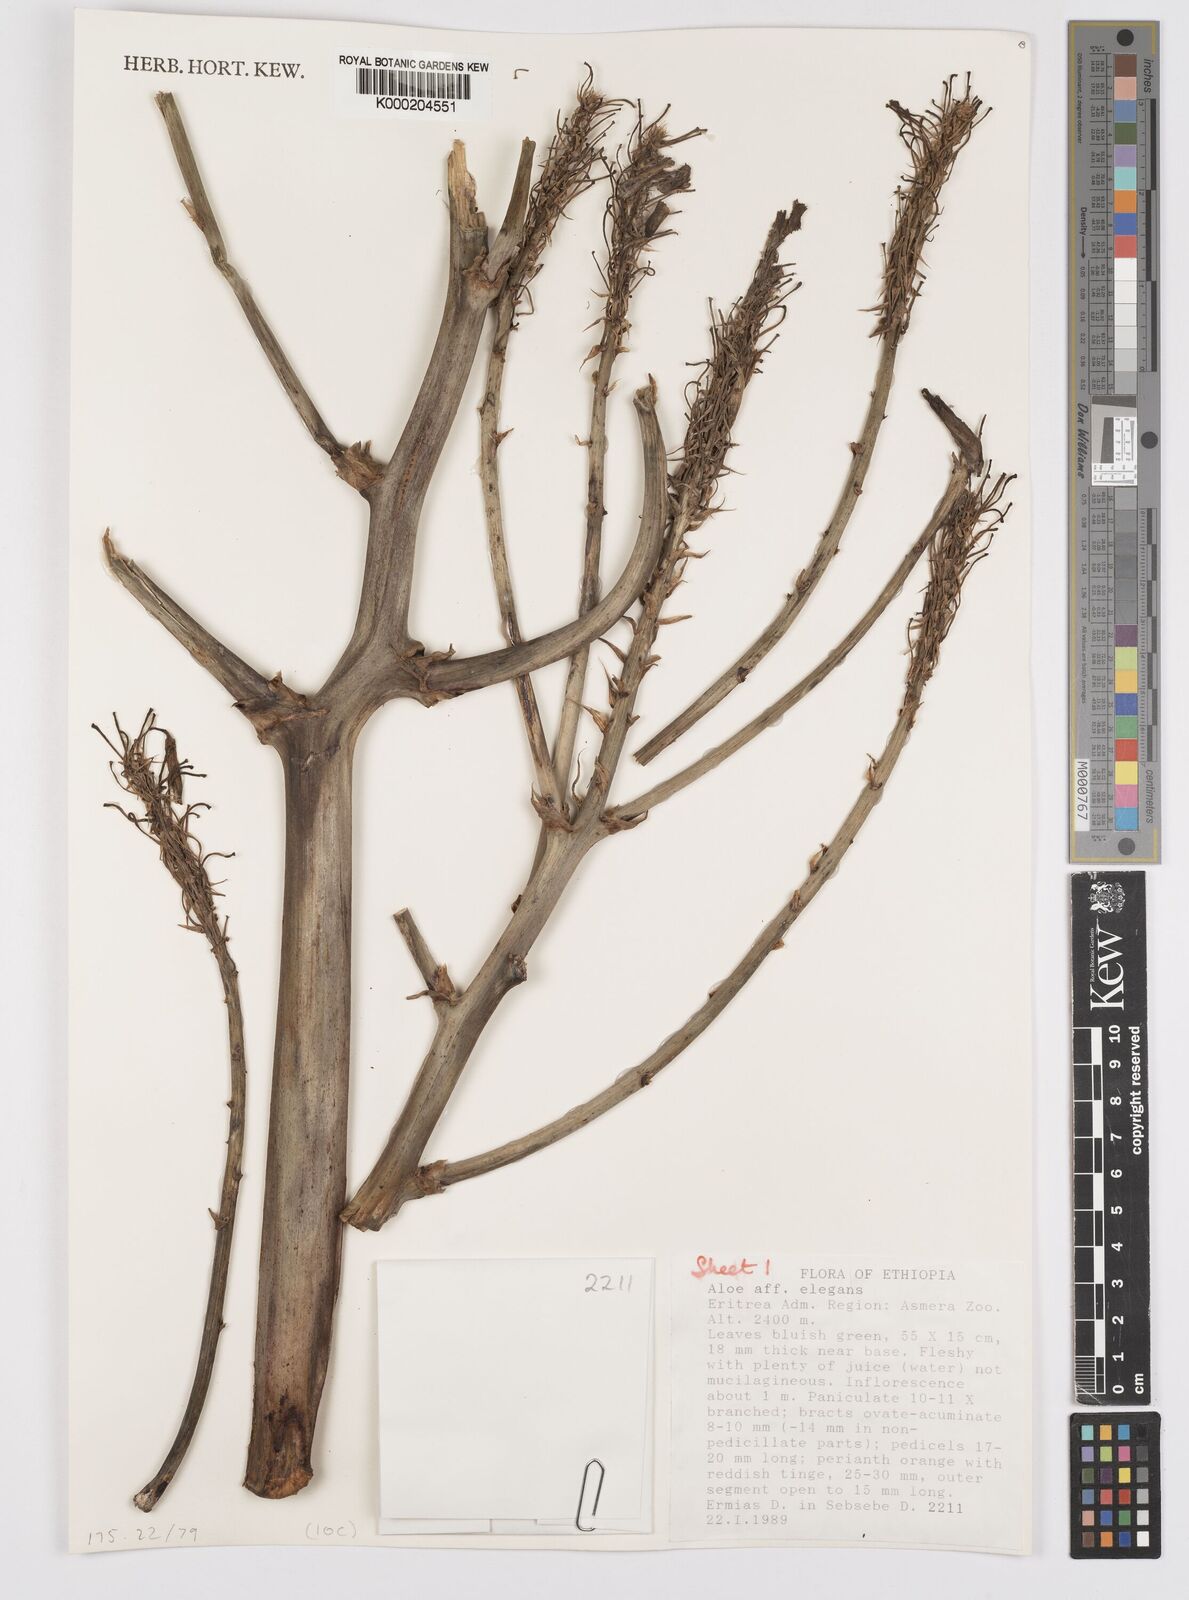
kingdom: Plantae
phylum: Tracheophyta
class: Liliopsida
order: Asparagales
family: Asphodelaceae
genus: Aloe
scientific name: Aloe elegans
